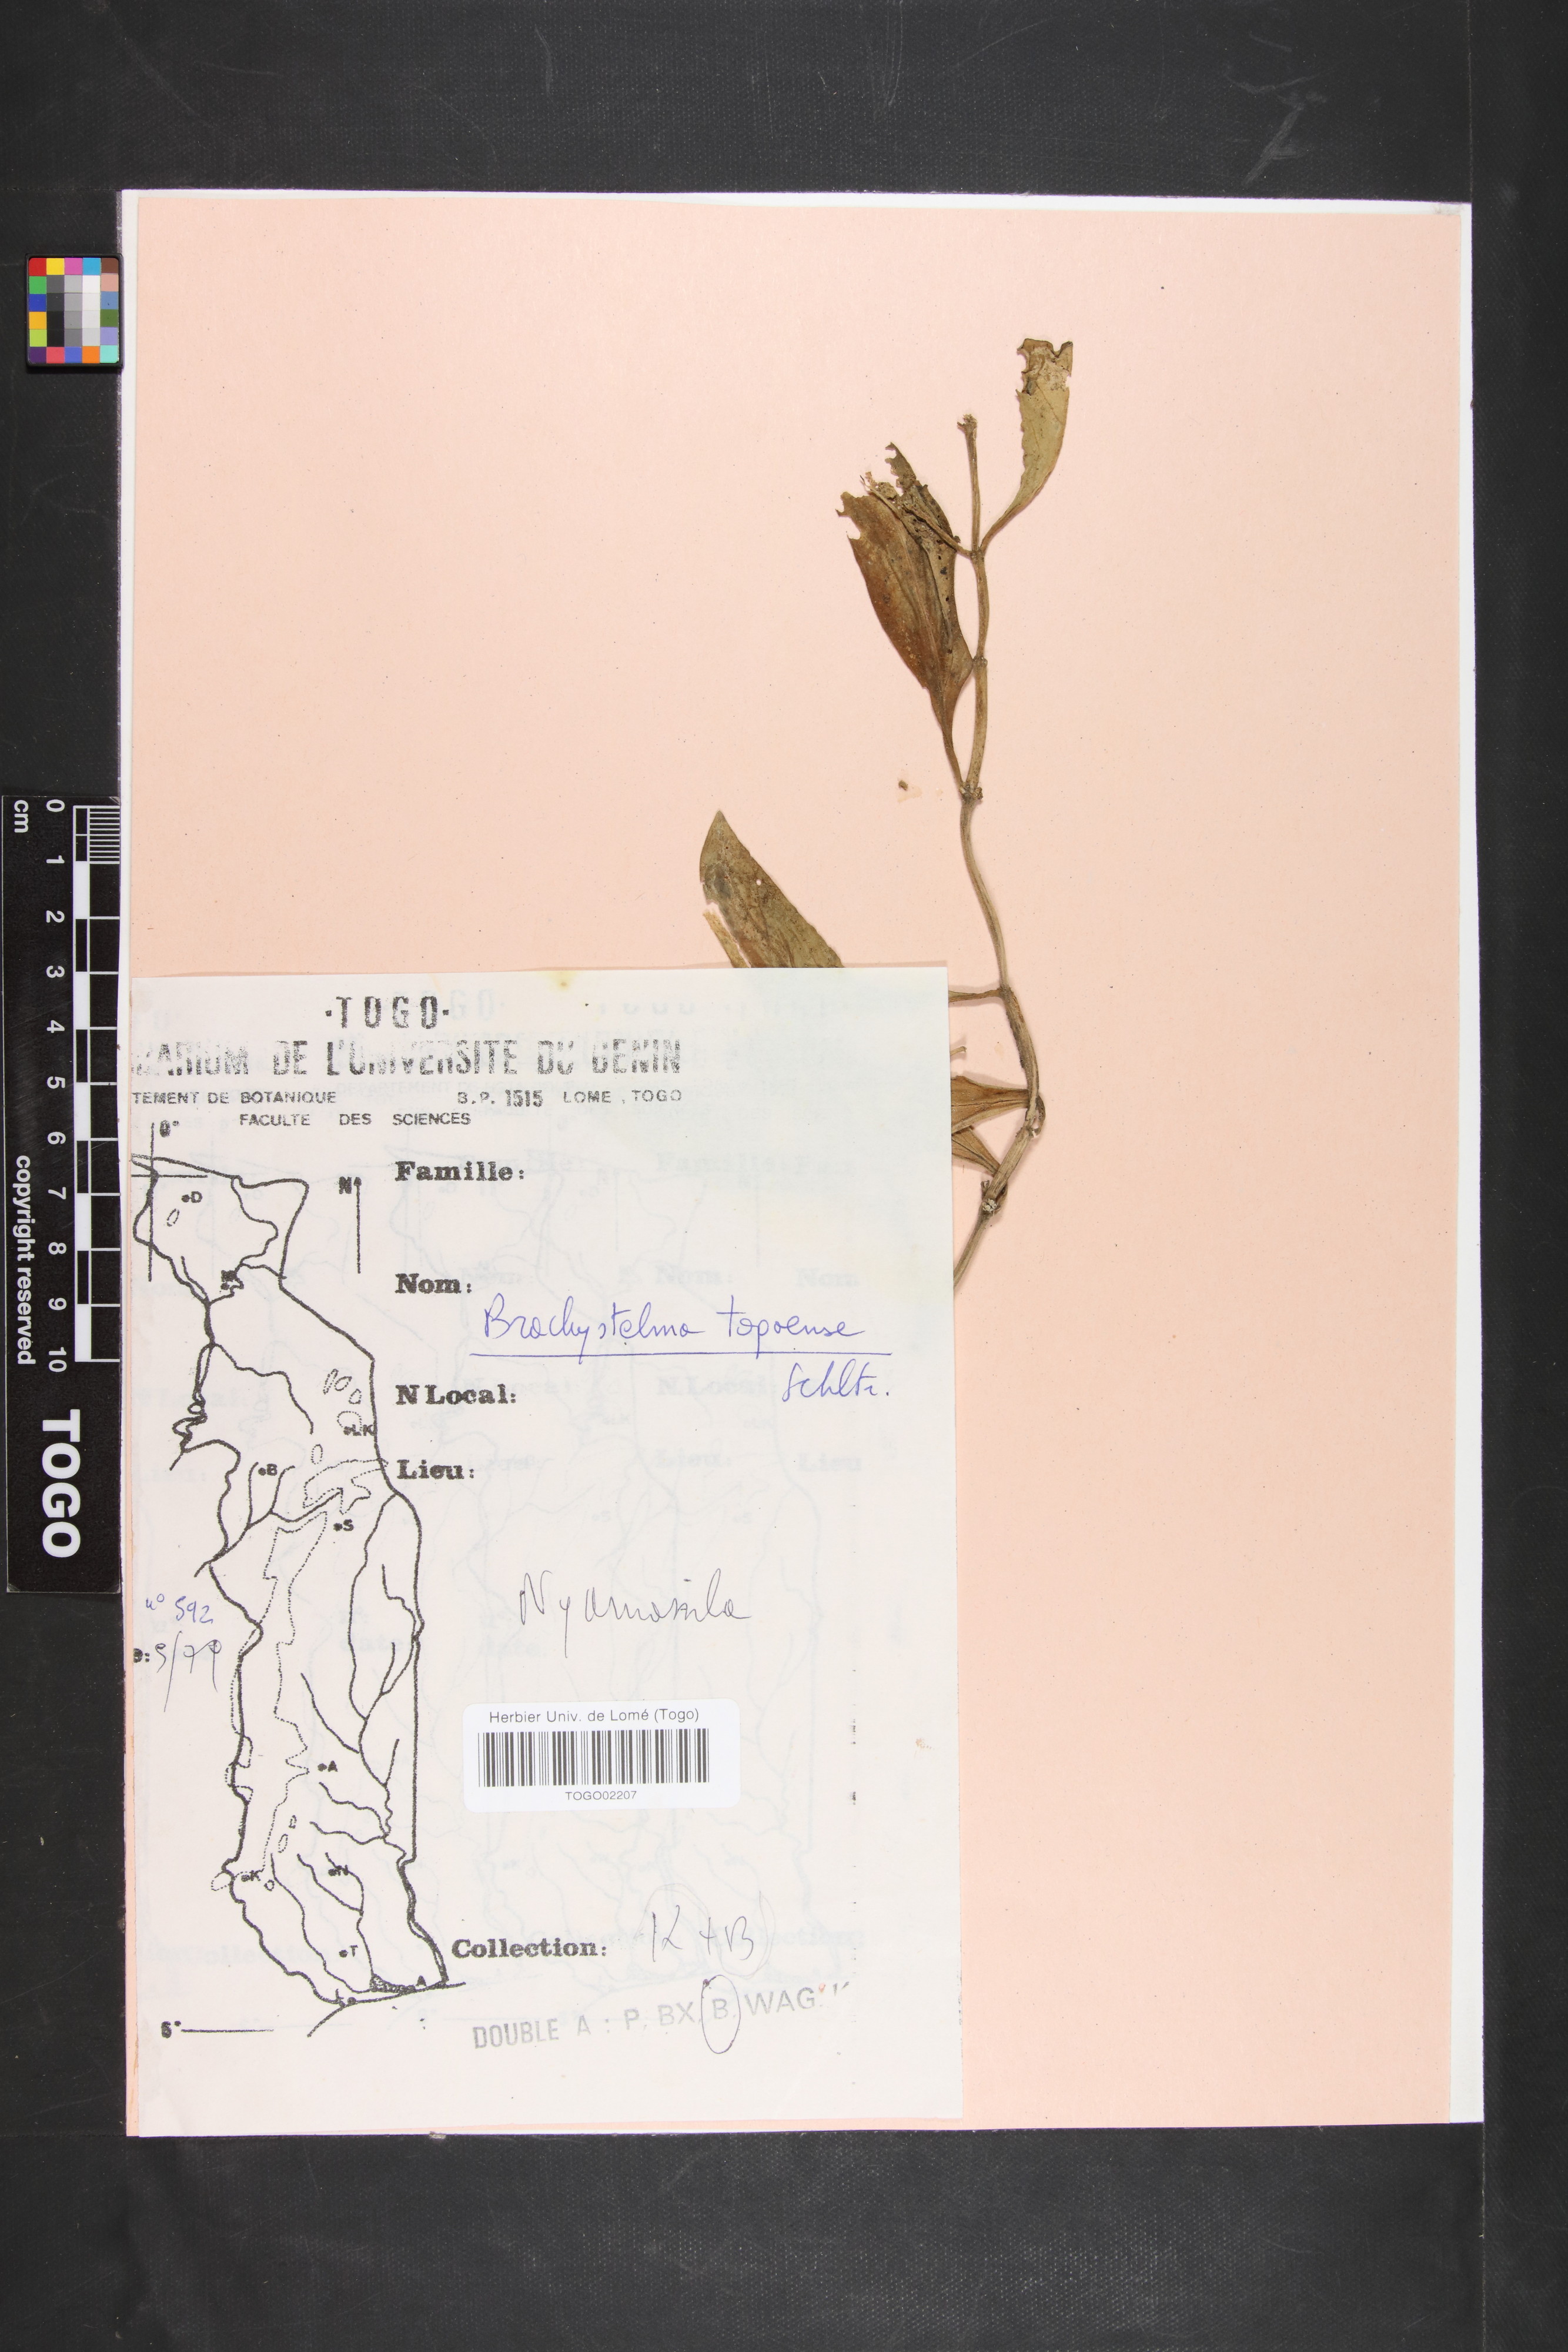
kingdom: Plantae
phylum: Tracheophyta
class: Magnoliopsida
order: Gentianales
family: Apocynaceae
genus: Ceropegia
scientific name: Ceropegia togoensis
